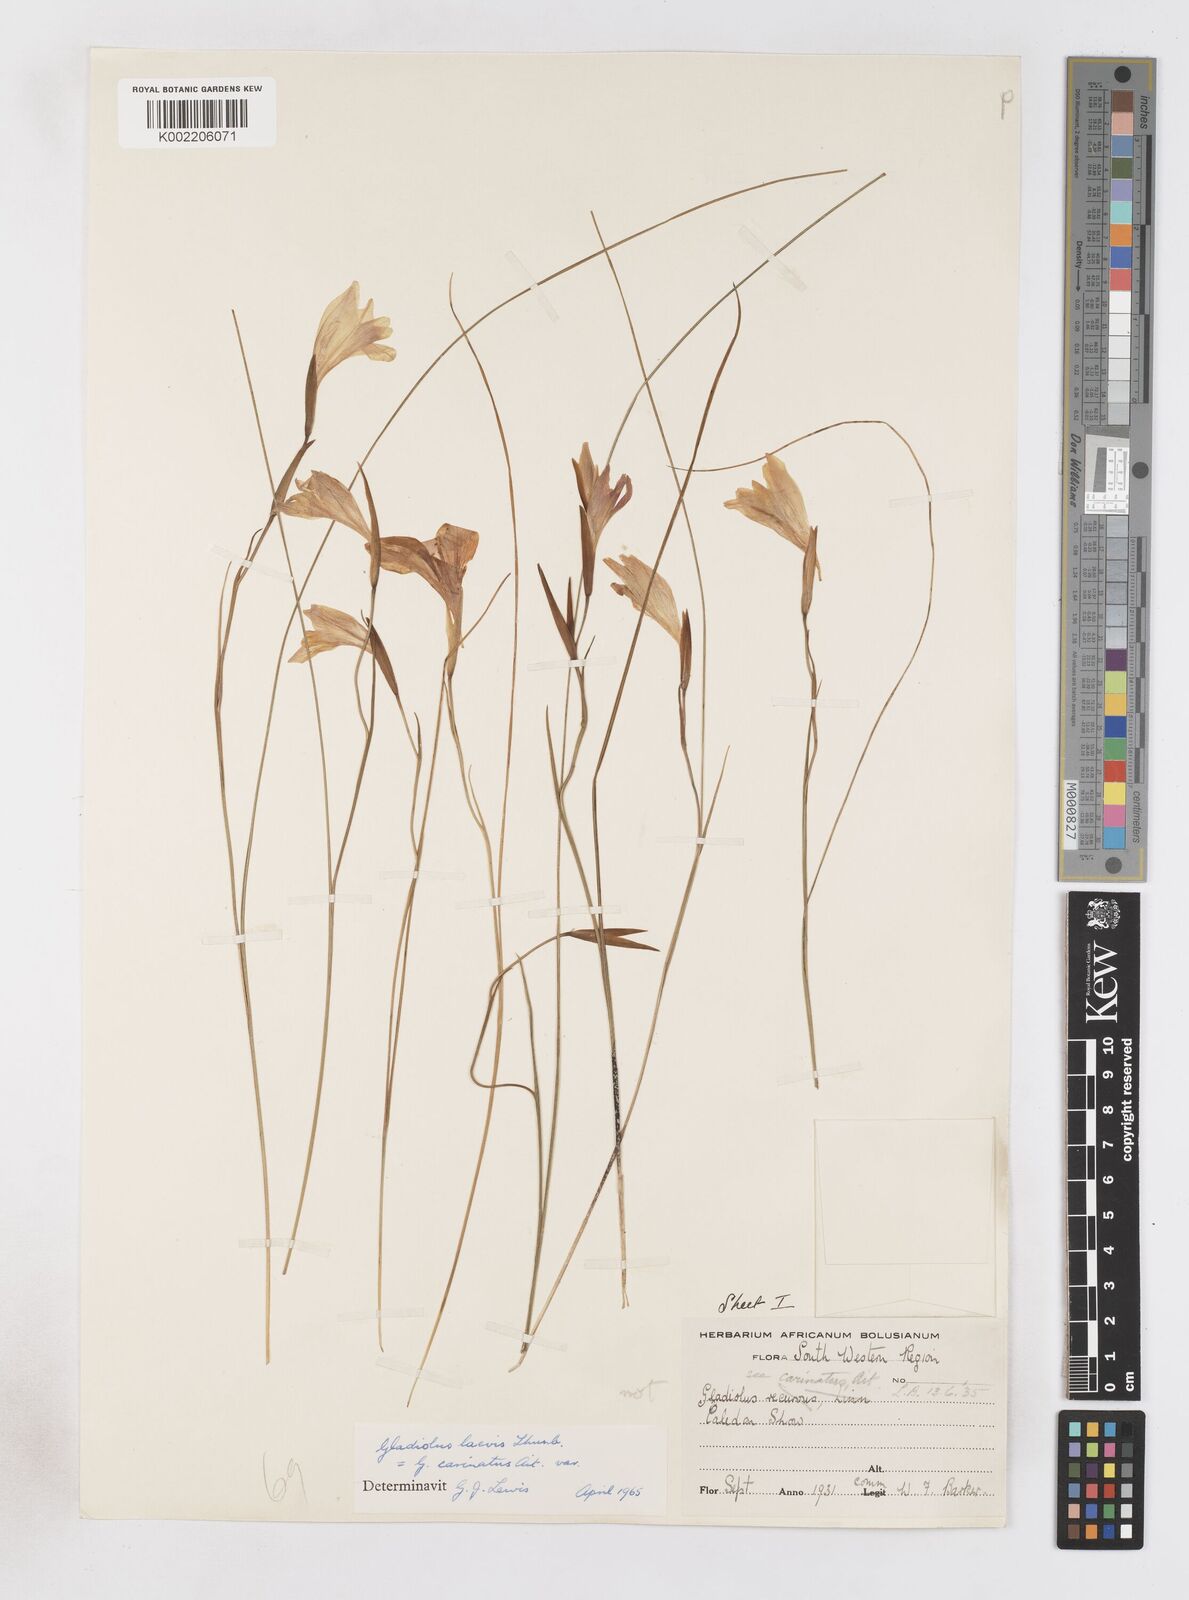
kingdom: Plantae
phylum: Tracheophyta
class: Liliopsida
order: Asparagales
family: Iridaceae
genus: Gladiolus
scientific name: Gladiolus carinatus
